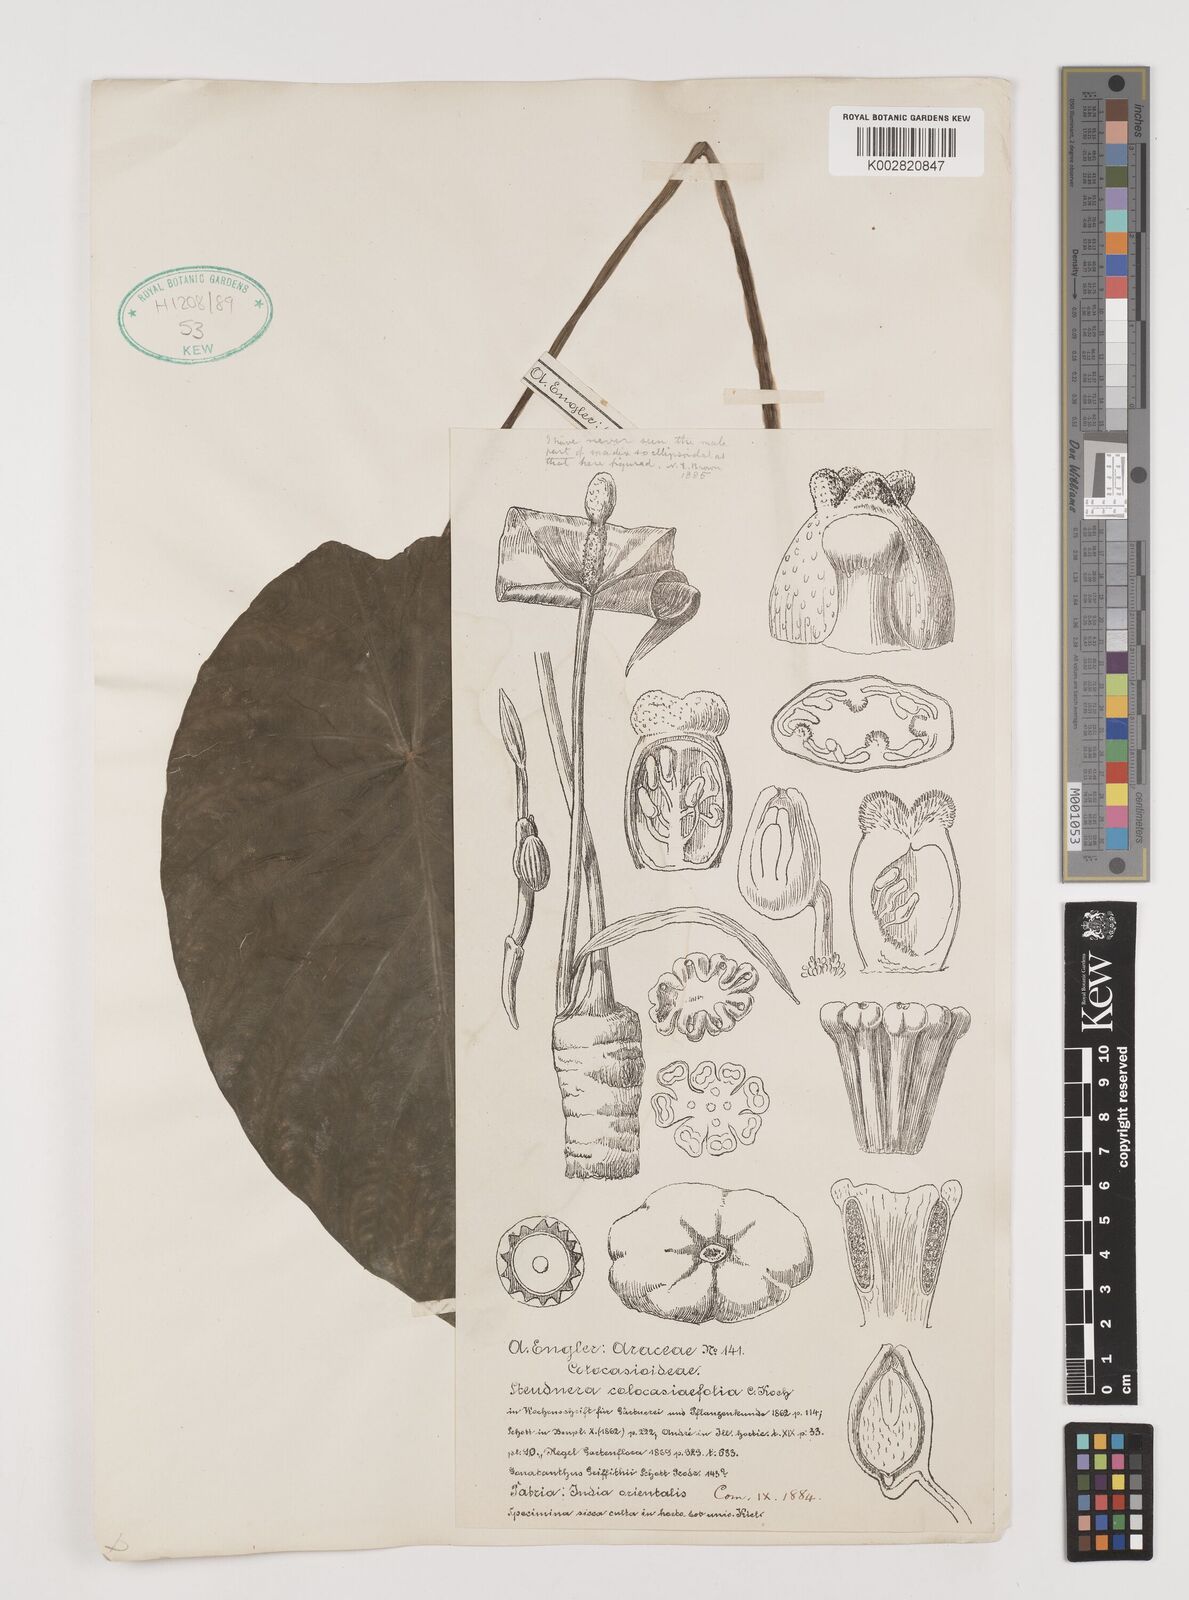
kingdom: Plantae
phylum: Tracheophyta
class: Liliopsida
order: Alismatales
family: Araceae
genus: Steudnera
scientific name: Steudnera colocasiifolia
